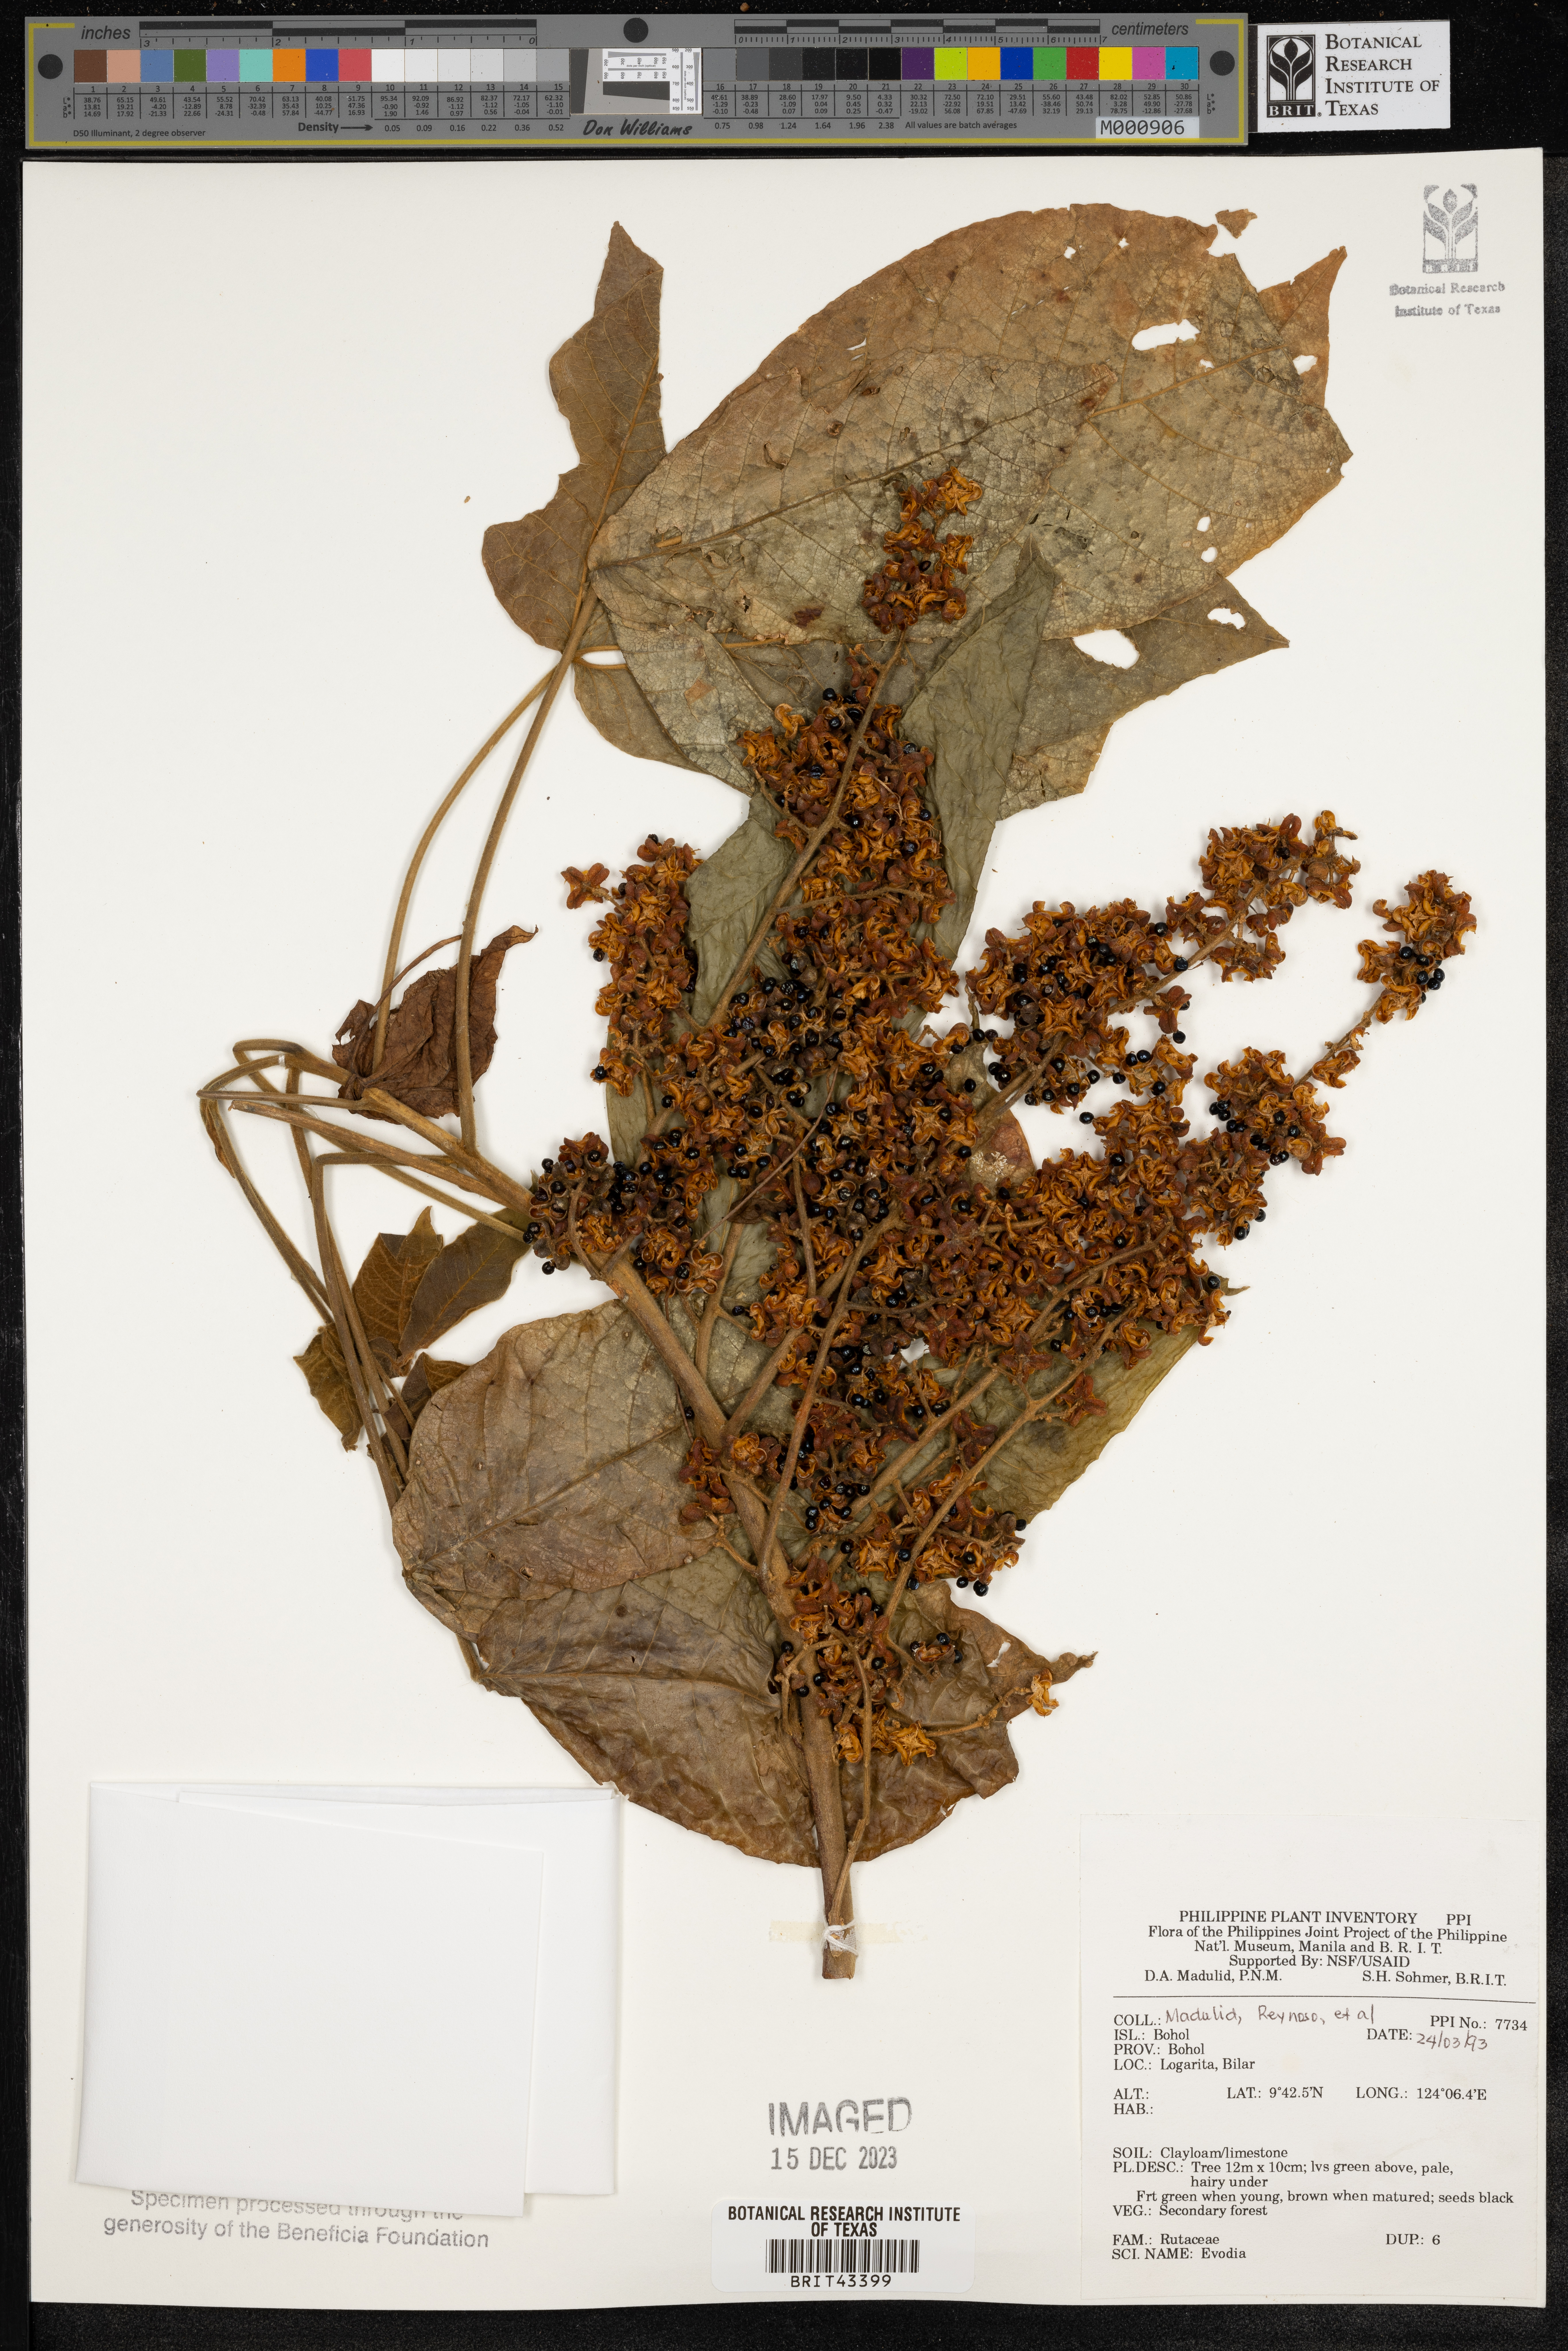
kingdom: Plantae
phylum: Tracheophyta
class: Magnoliopsida
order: Sapindales
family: Rutaceae
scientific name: Rutaceae
